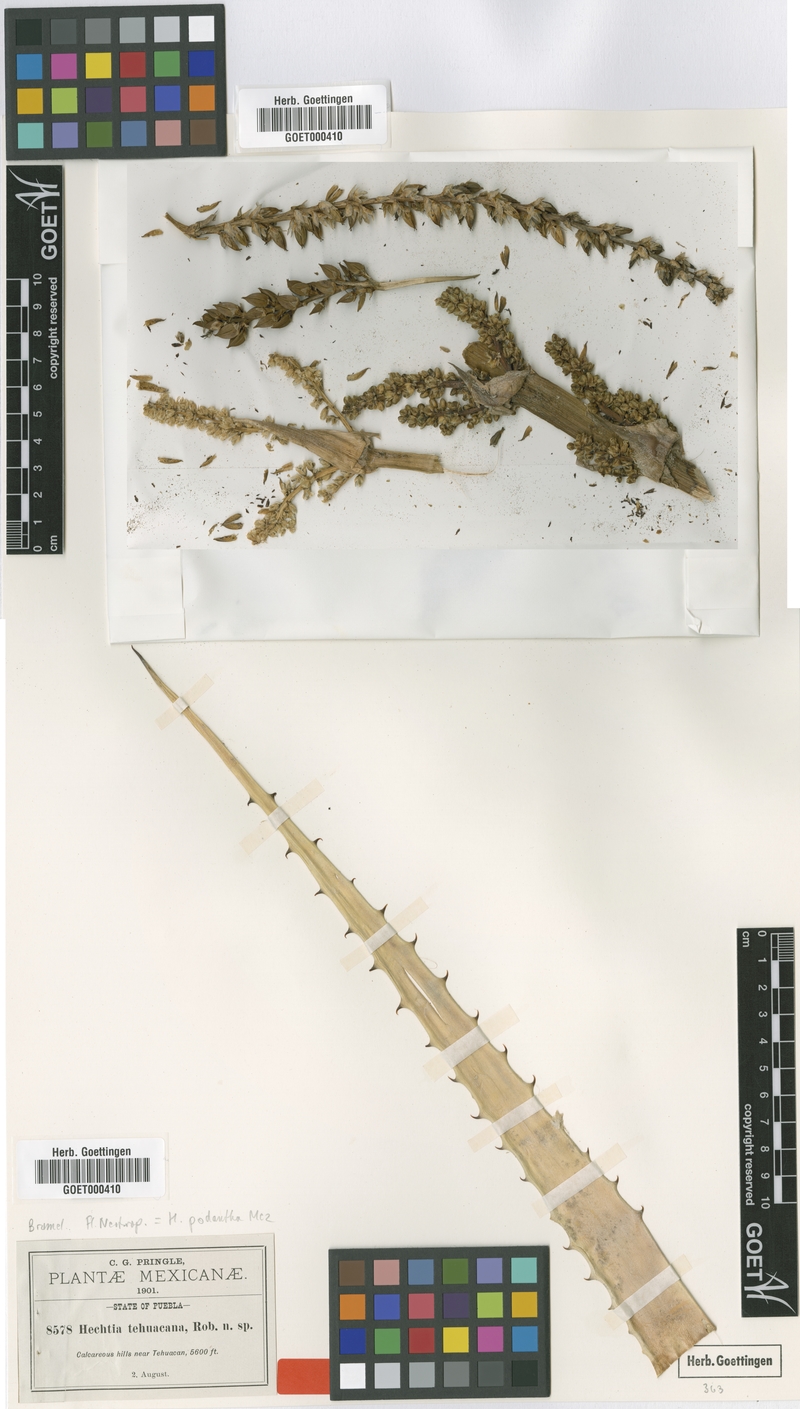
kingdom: Plantae
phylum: Tracheophyta
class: Liliopsida
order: Poales
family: Bromeliaceae
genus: Hechtia
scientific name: Hechtia podantha
